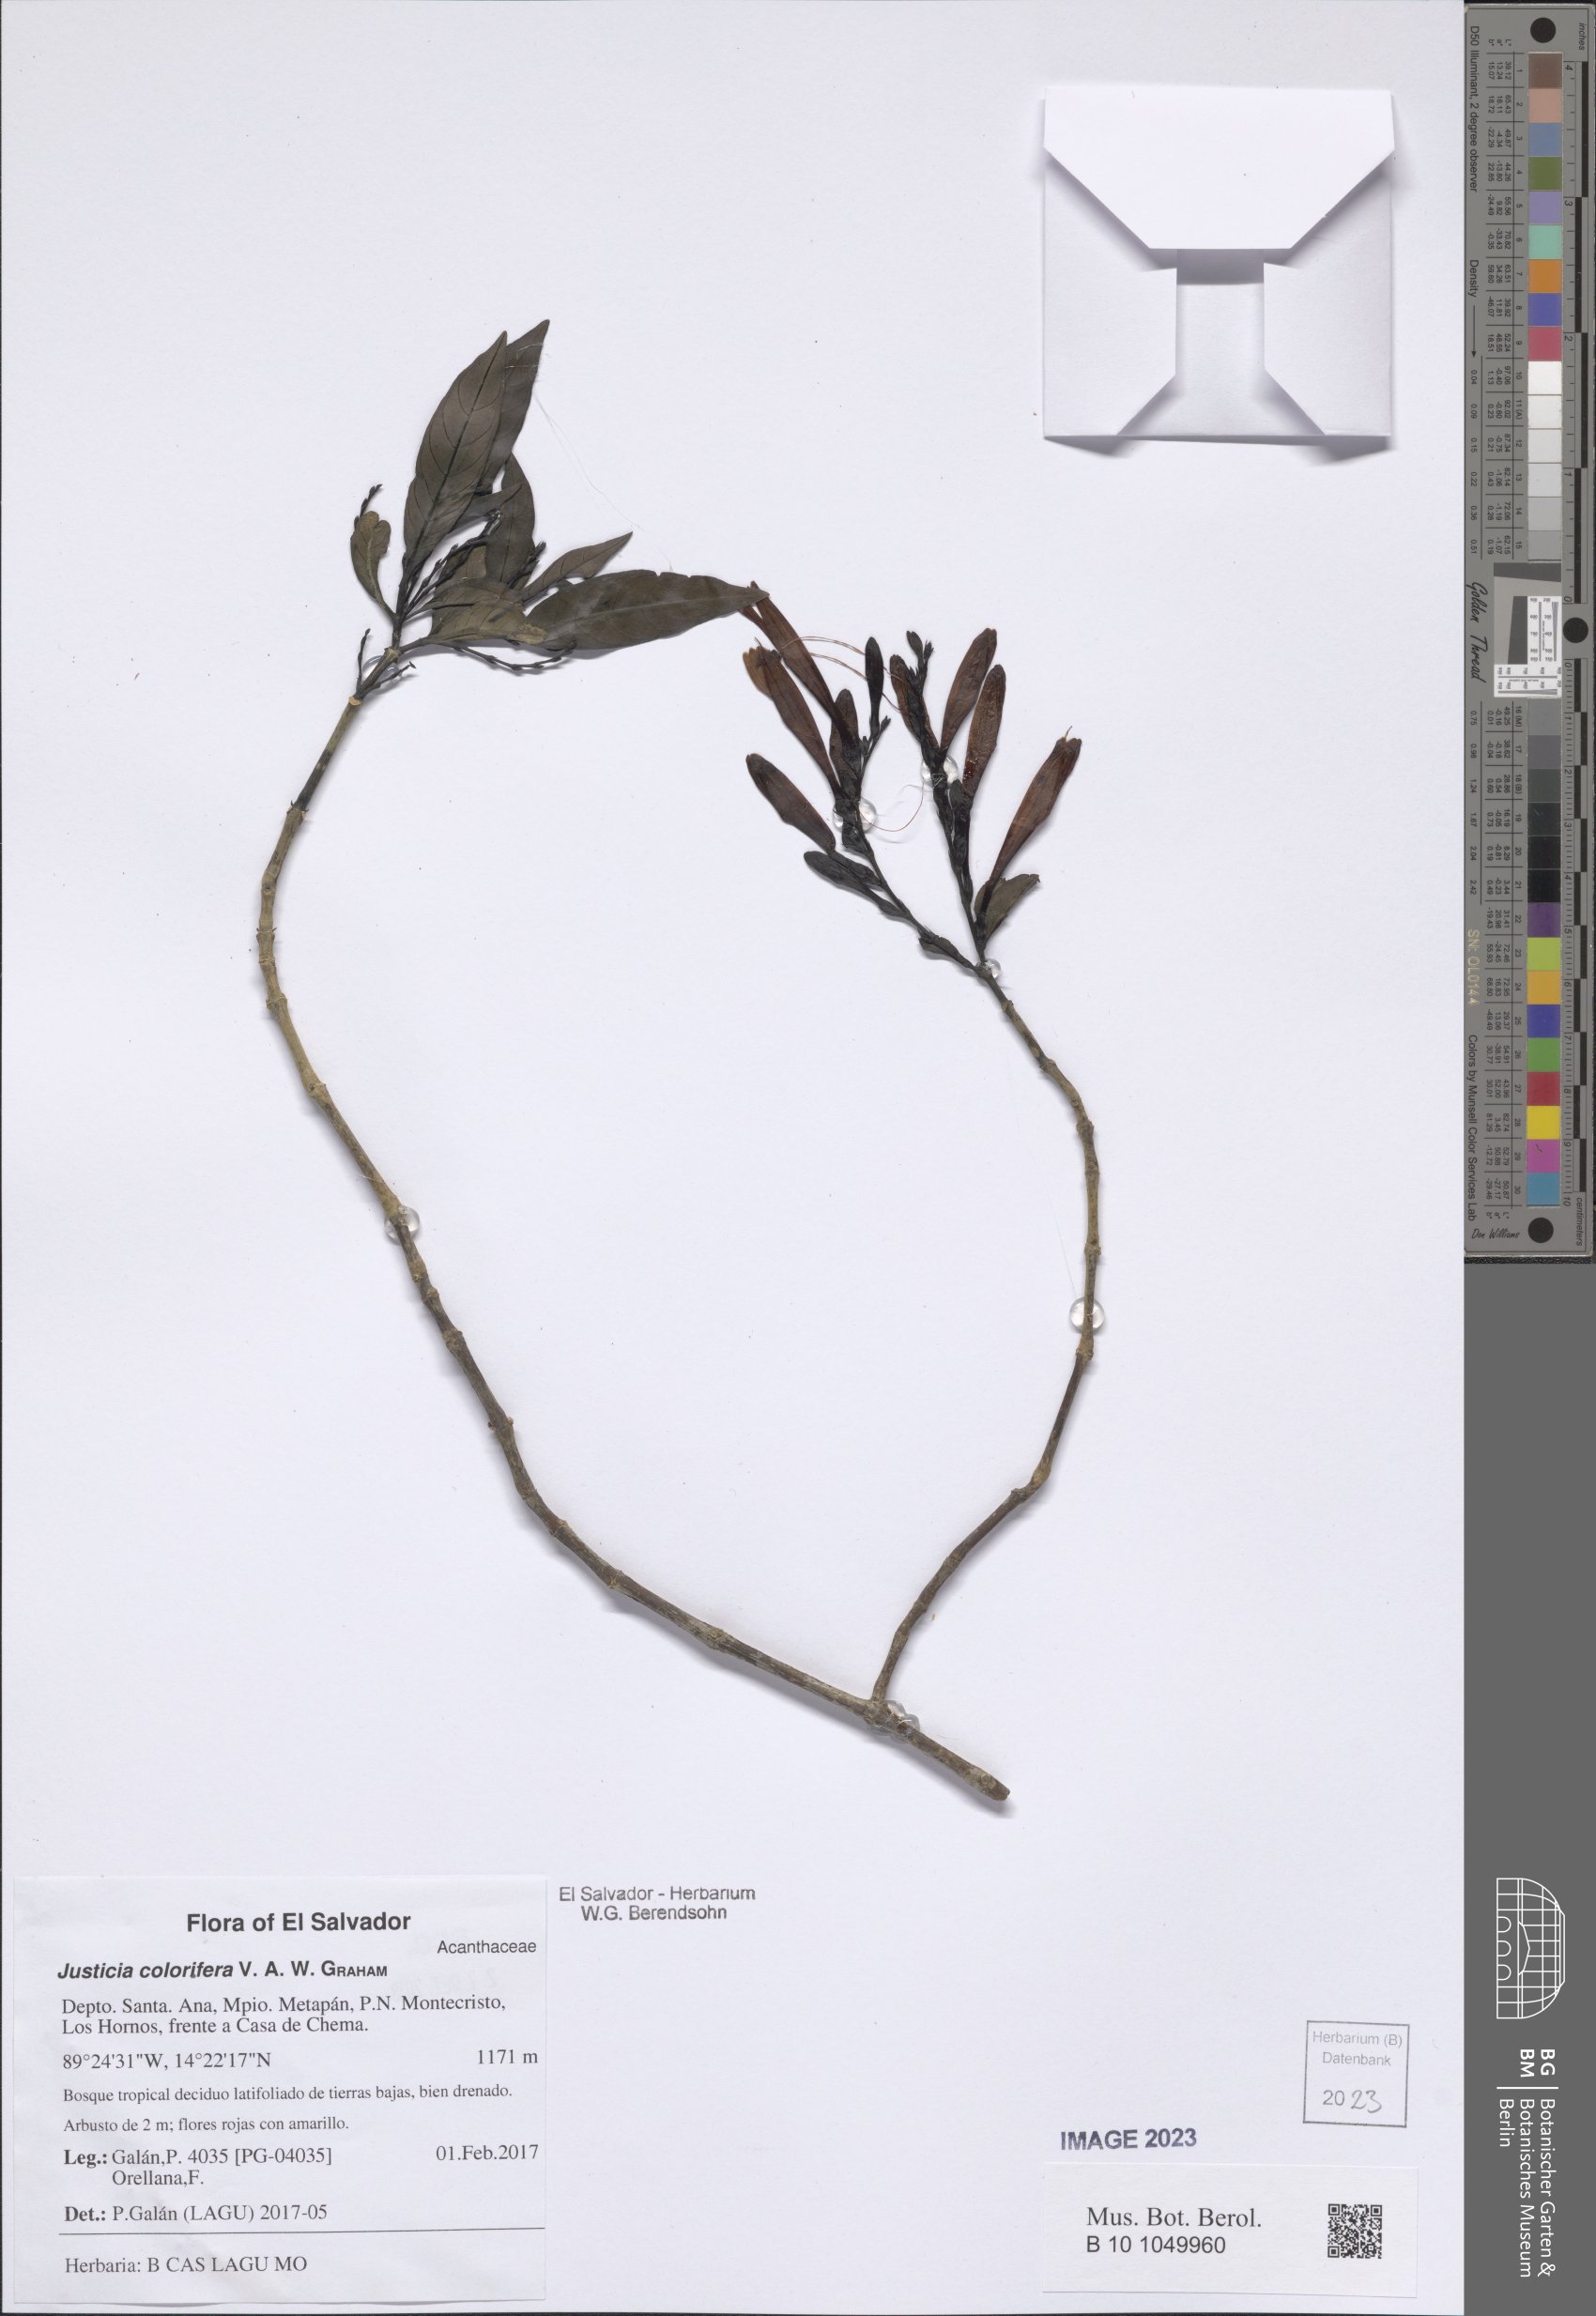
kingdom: Plantae
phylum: Tracheophyta
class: Magnoliopsida
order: Lamiales
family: Acanthaceae
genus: Justicia
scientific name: Justicia tinctoriella
